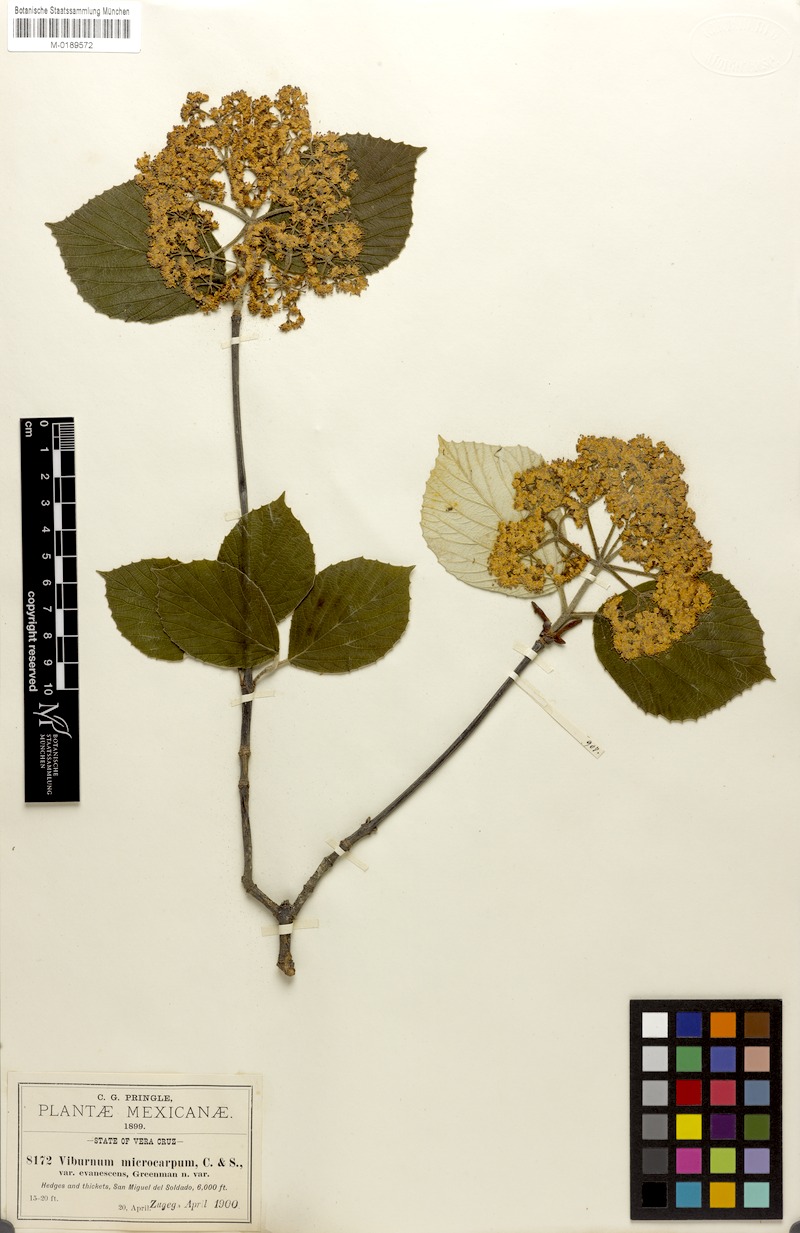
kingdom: Plantae
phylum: Tracheophyta
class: Magnoliopsida
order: Dipsacales
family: Viburnaceae
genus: Viburnum
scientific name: Viburnum microcarpum
